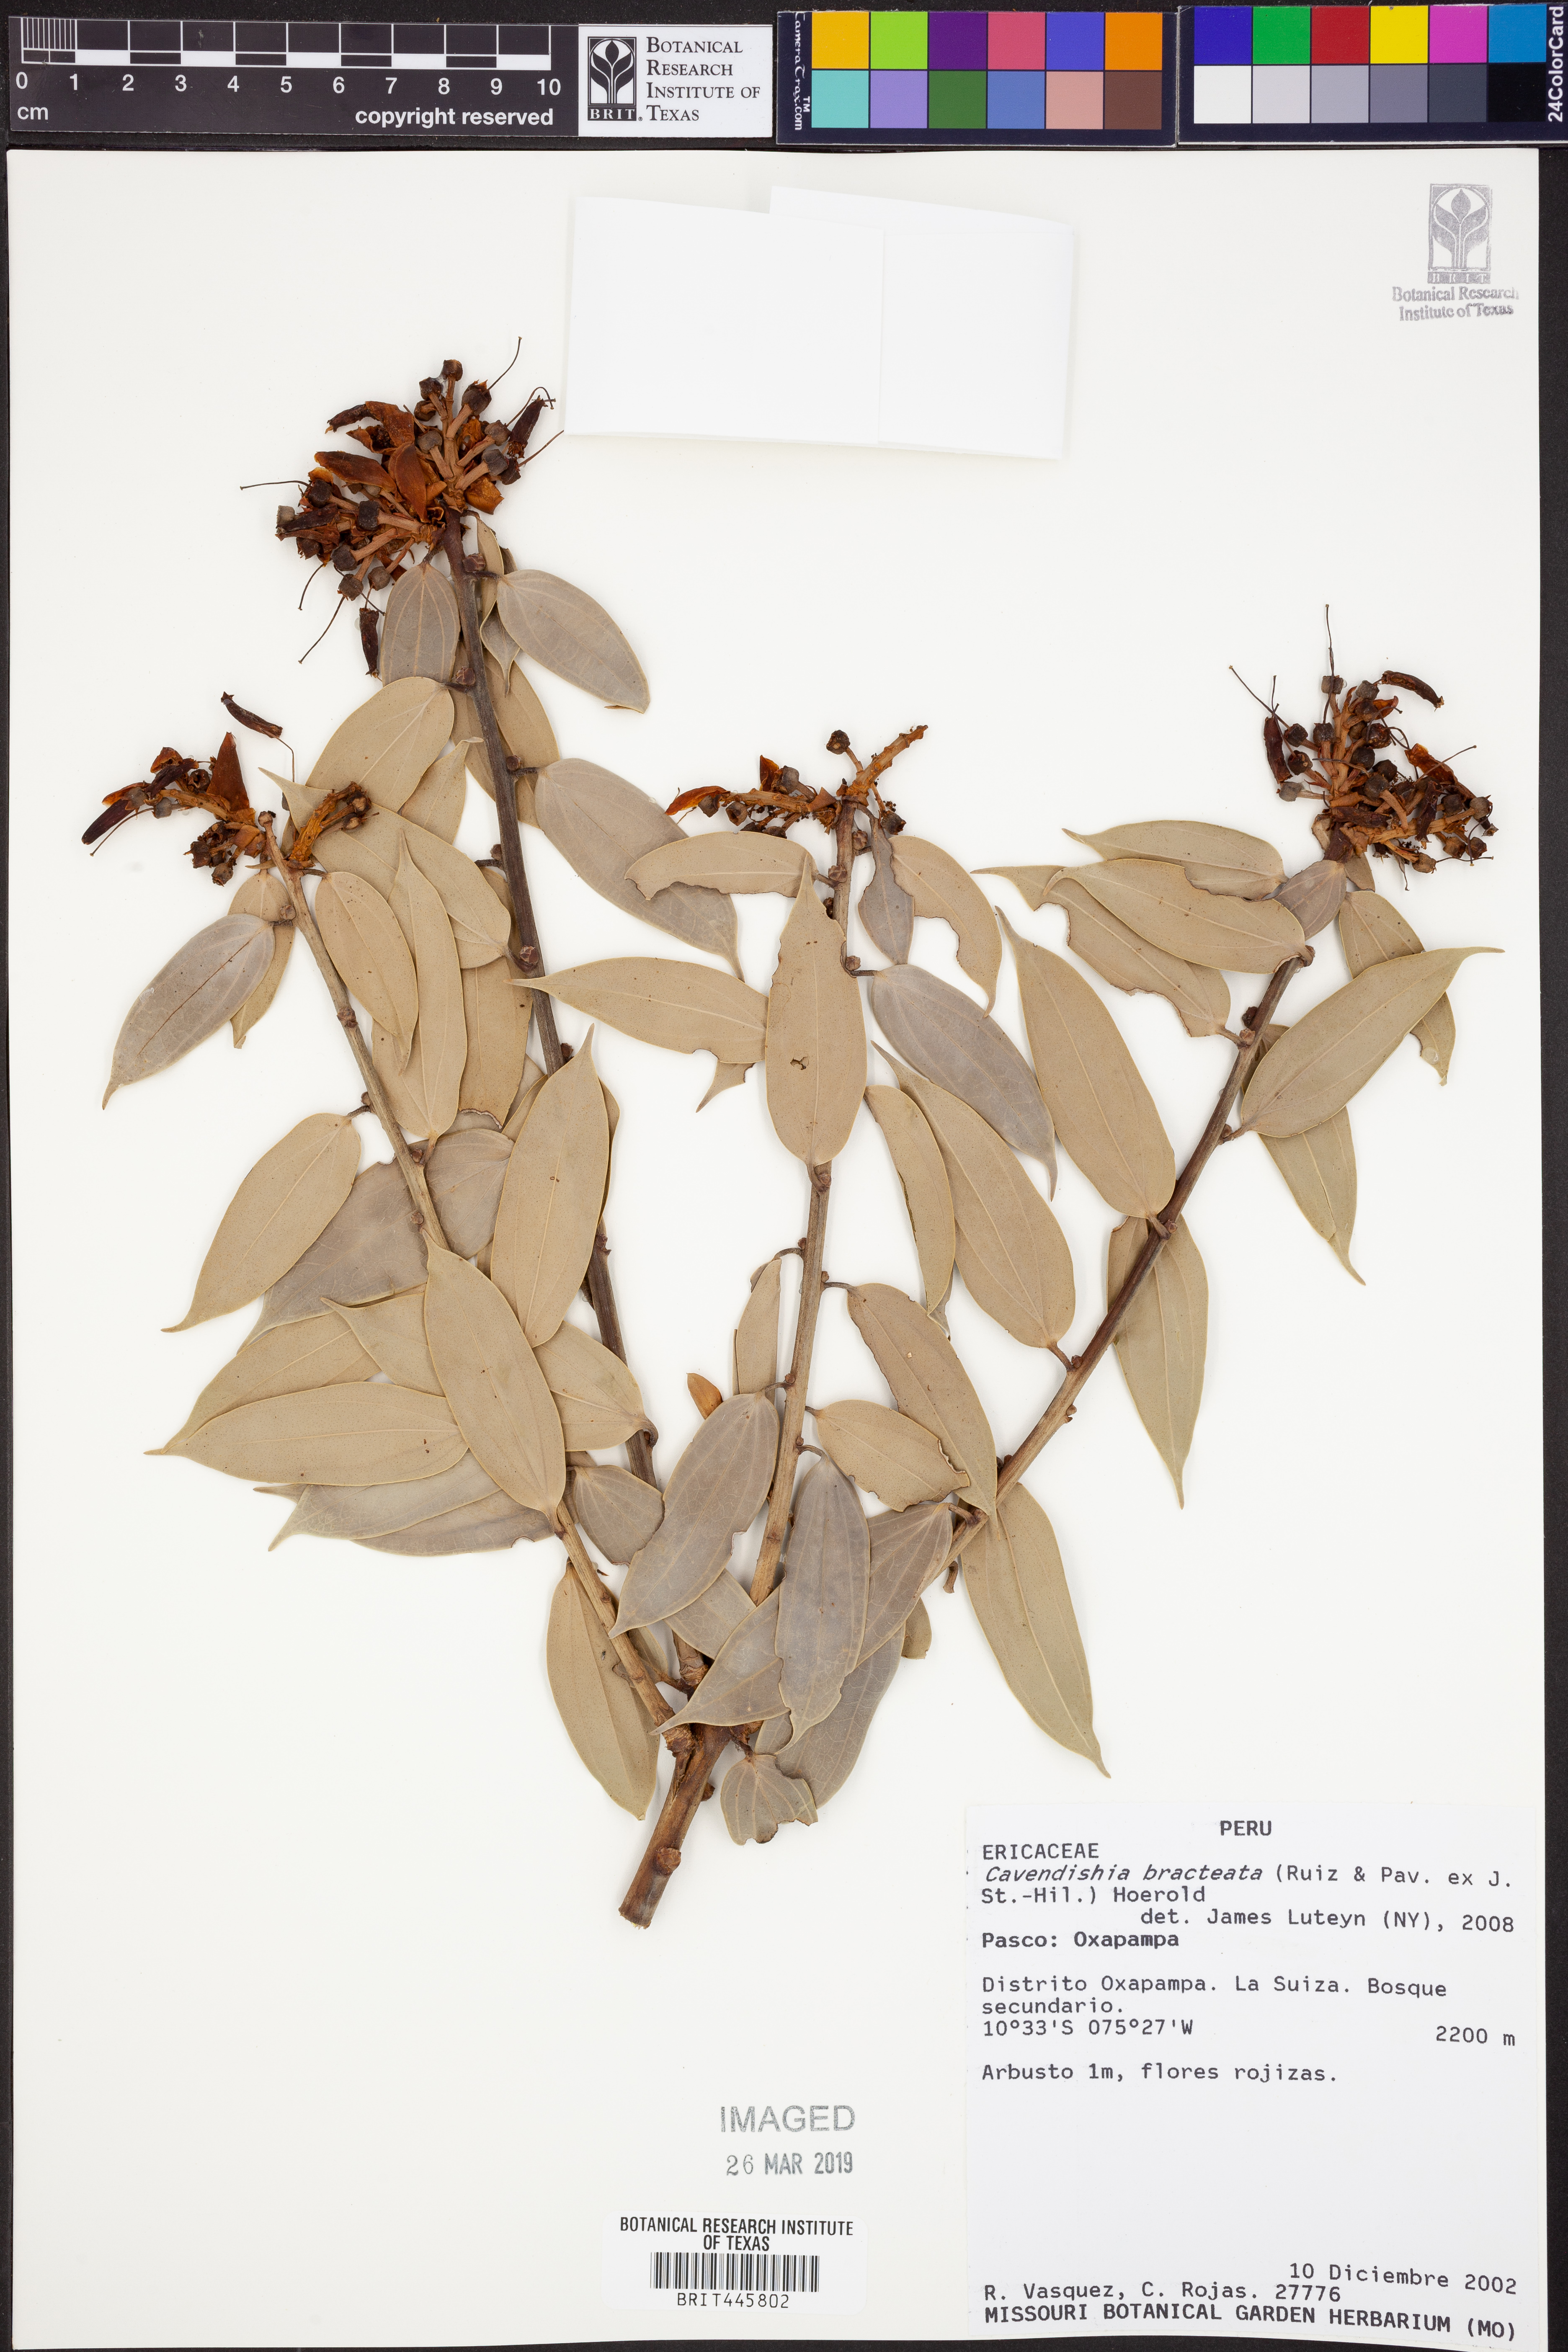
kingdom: Plantae
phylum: Tracheophyta
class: Magnoliopsida
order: Ericales
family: Ericaceae
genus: Cavendishia
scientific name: Cavendishia bracteata
